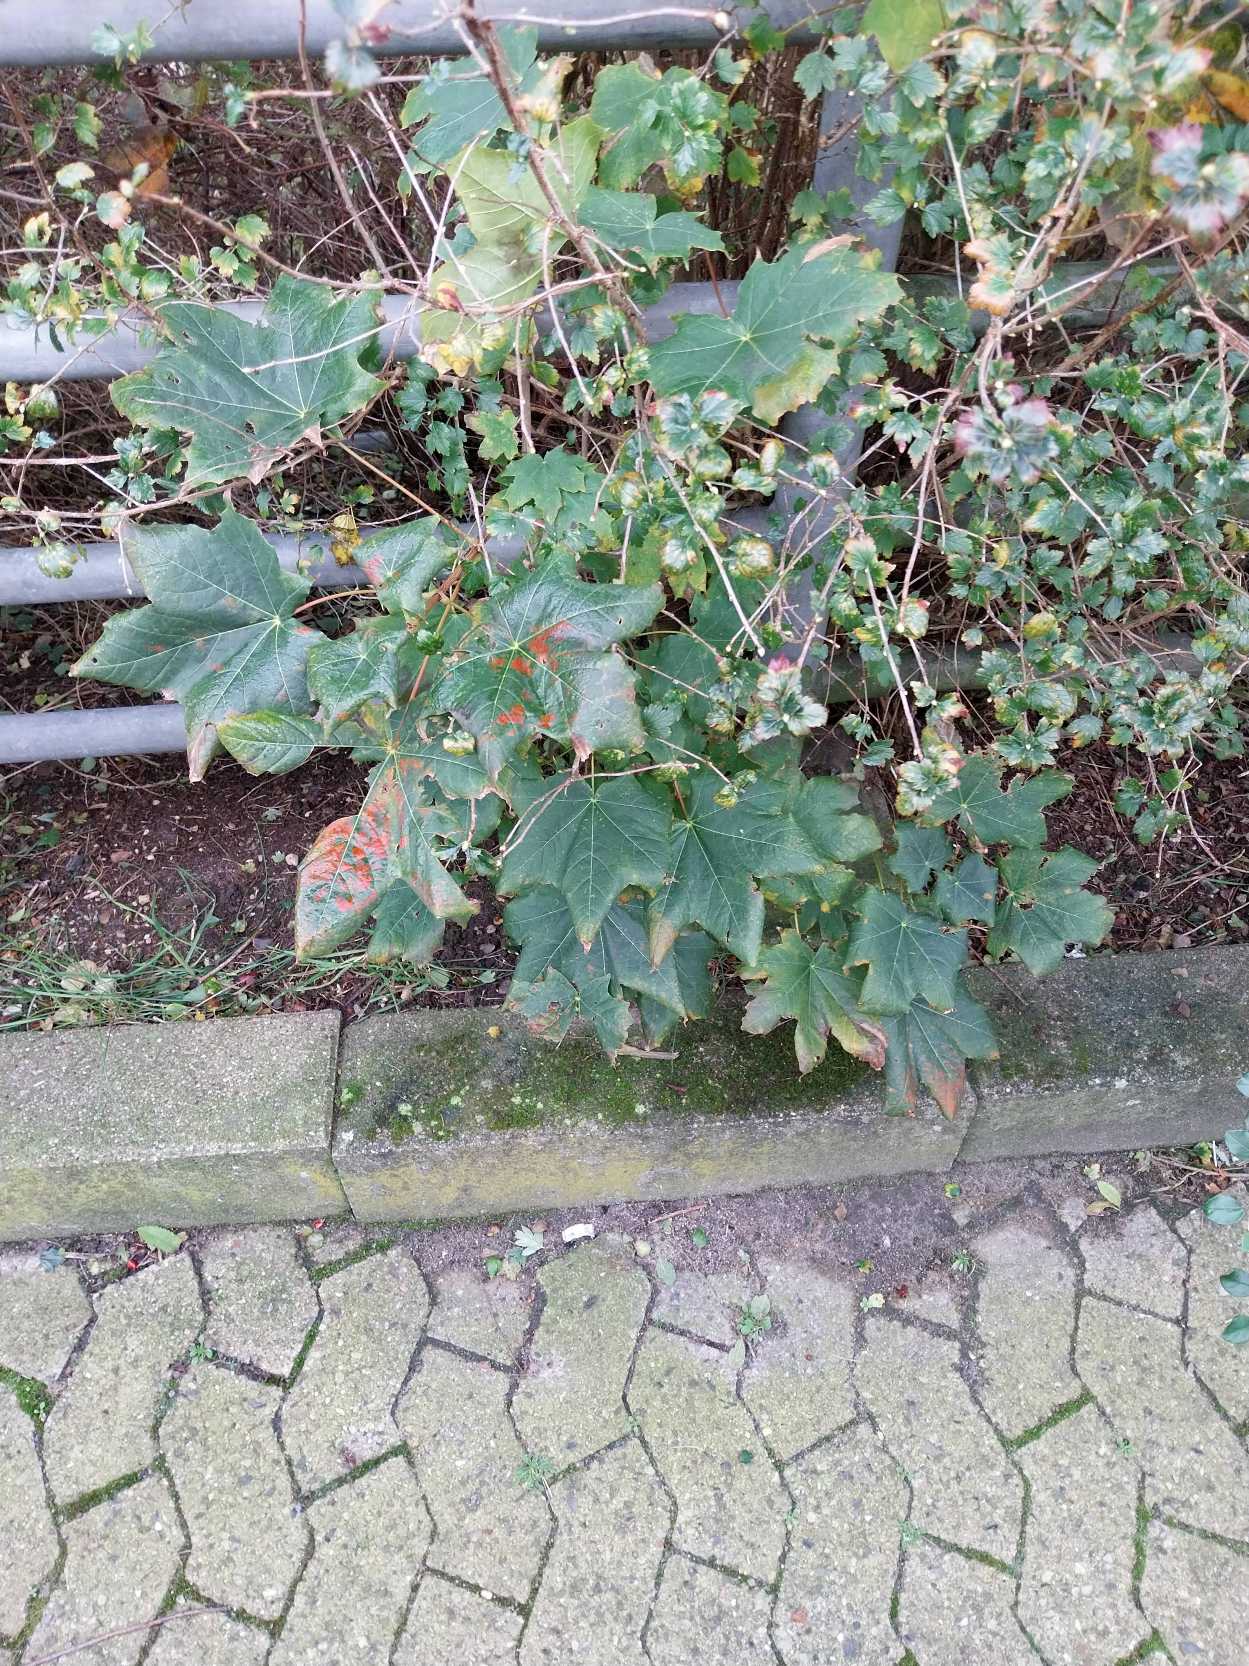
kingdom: Plantae
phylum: Tracheophyta
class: Magnoliopsida
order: Sapindales
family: Sapindaceae
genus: Acer
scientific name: Acer pseudoplatanus
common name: Ahorn
